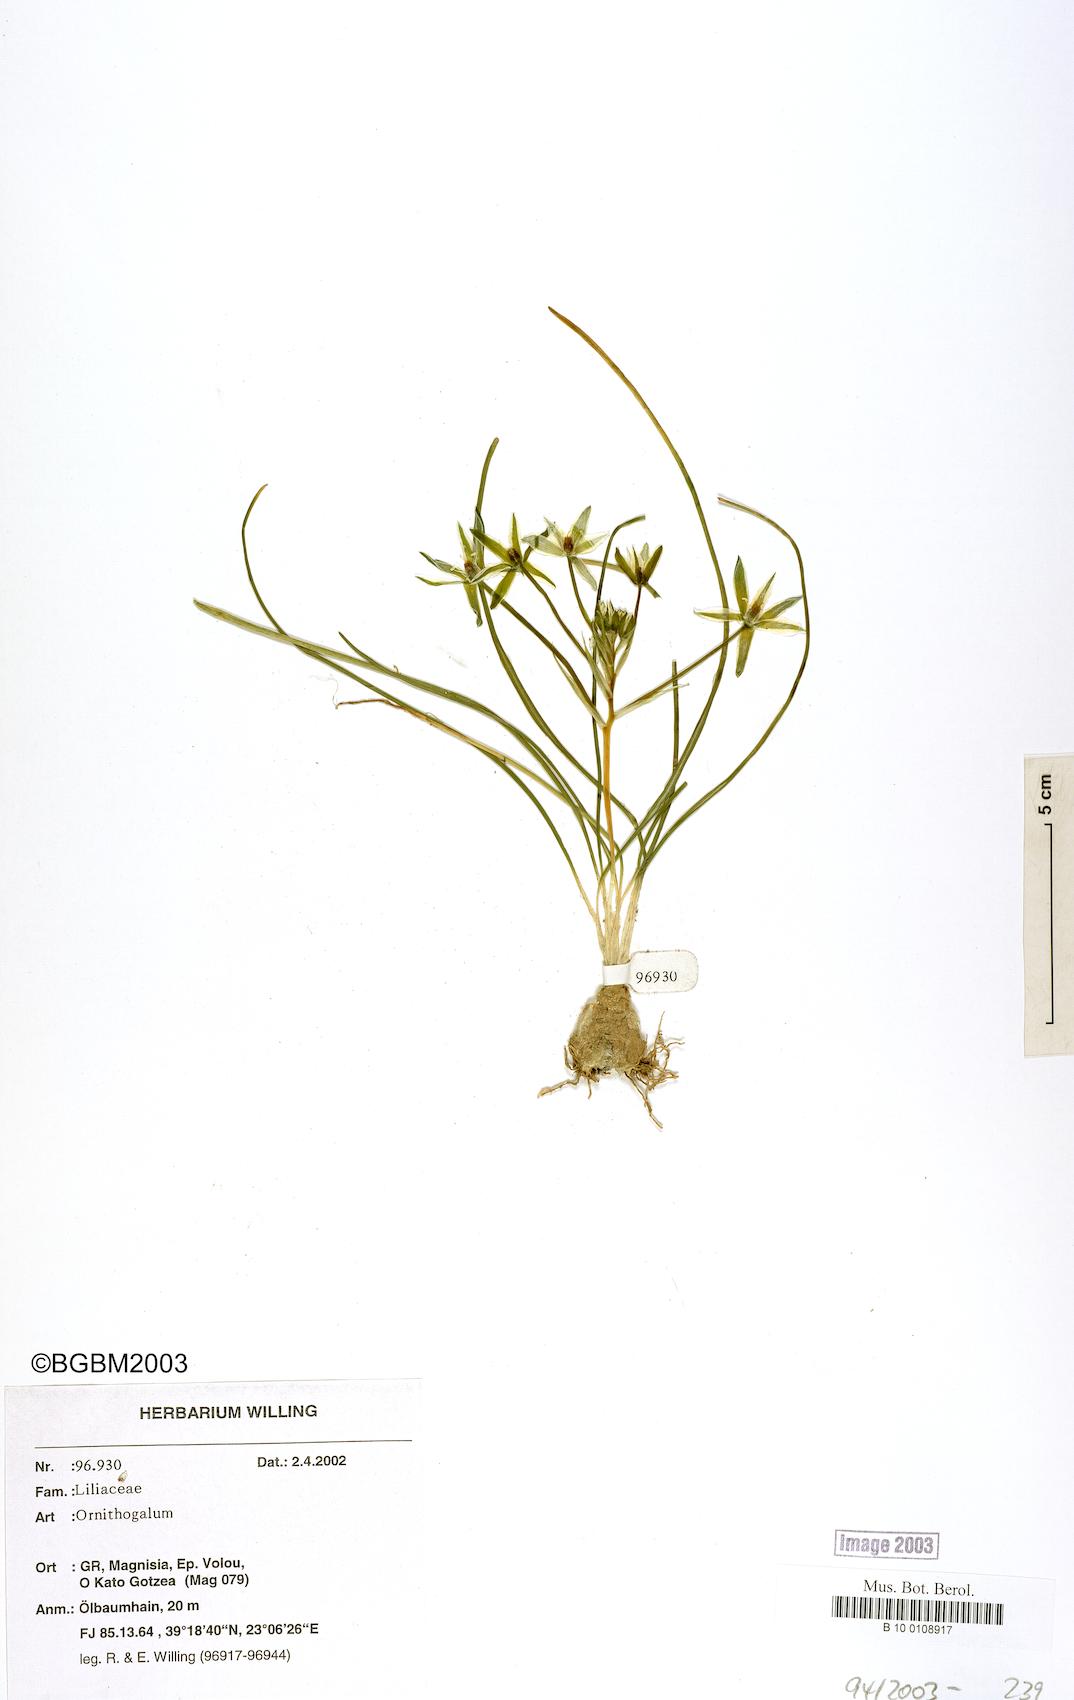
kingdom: Plantae
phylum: Tracheophyta
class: Liliopsida
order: Liliales
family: Liliaceae
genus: Ornithogalum
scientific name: Ornithogalum
